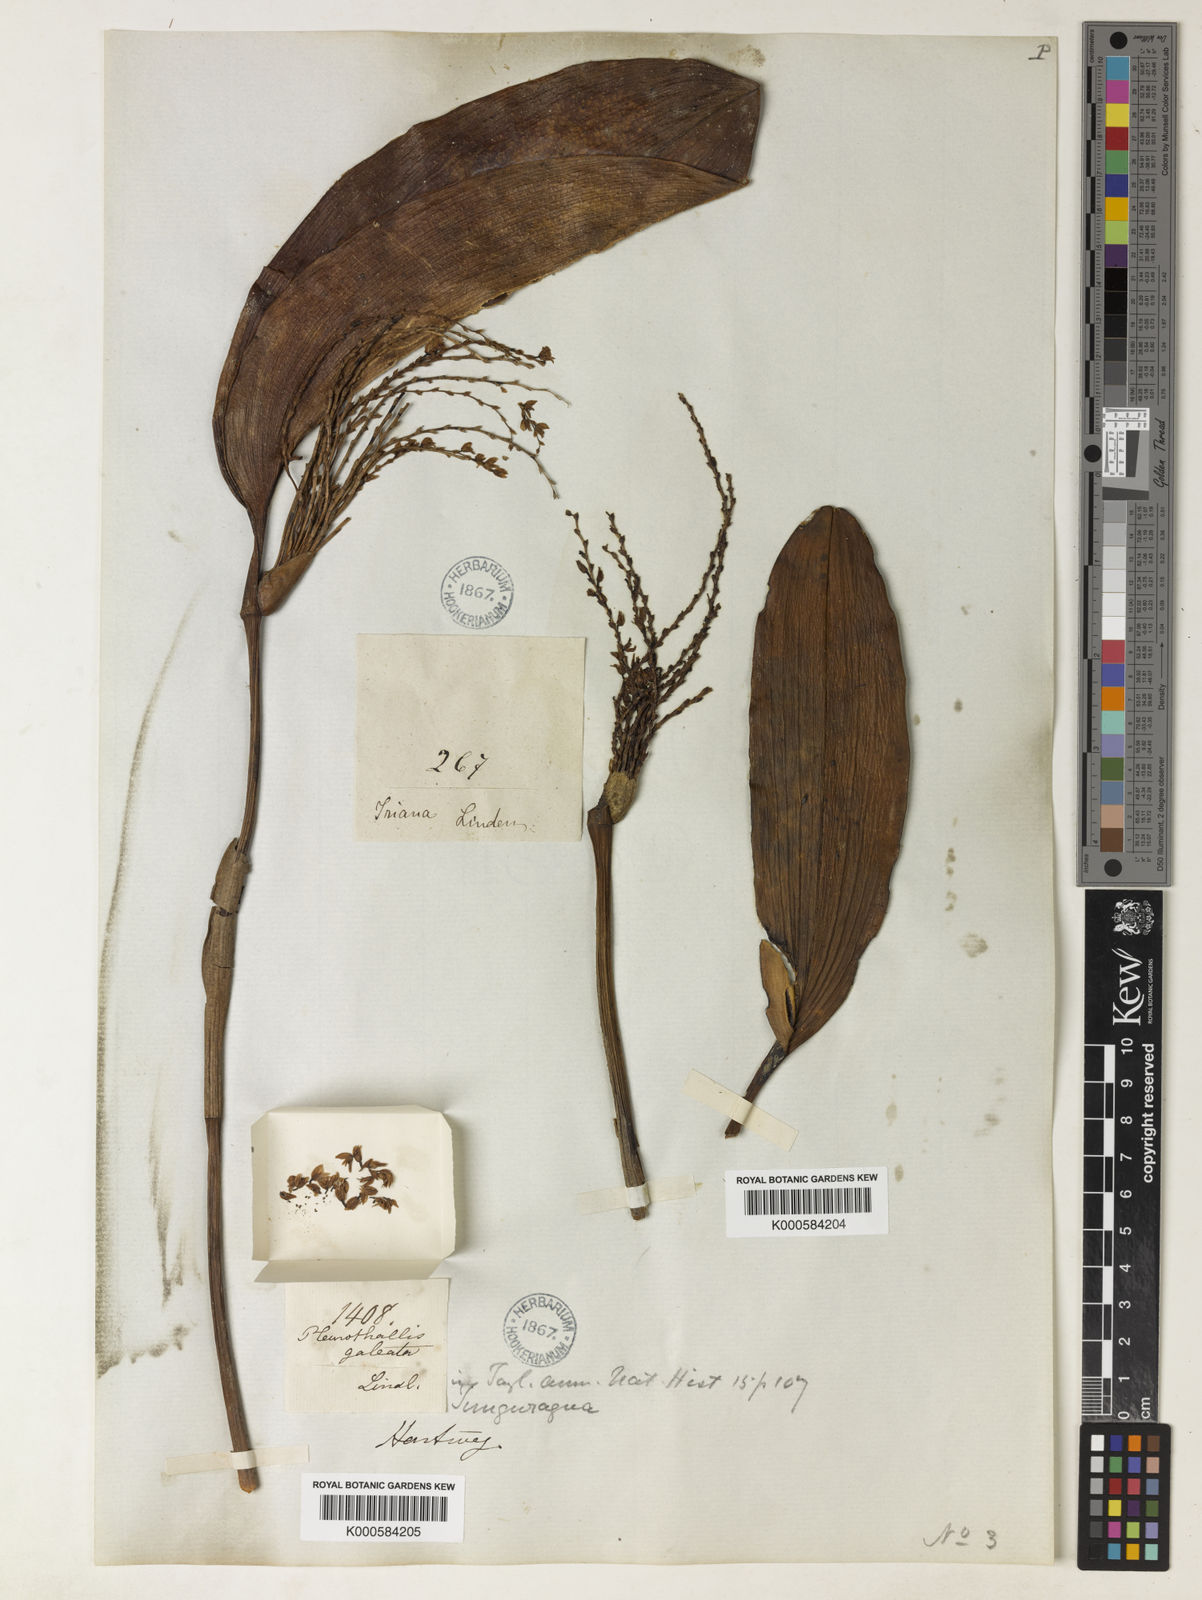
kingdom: Plantae
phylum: Tracheophyta
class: Liliopsida
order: Asparagales
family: Orchidaceae
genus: Stelis
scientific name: Stelis galeata
